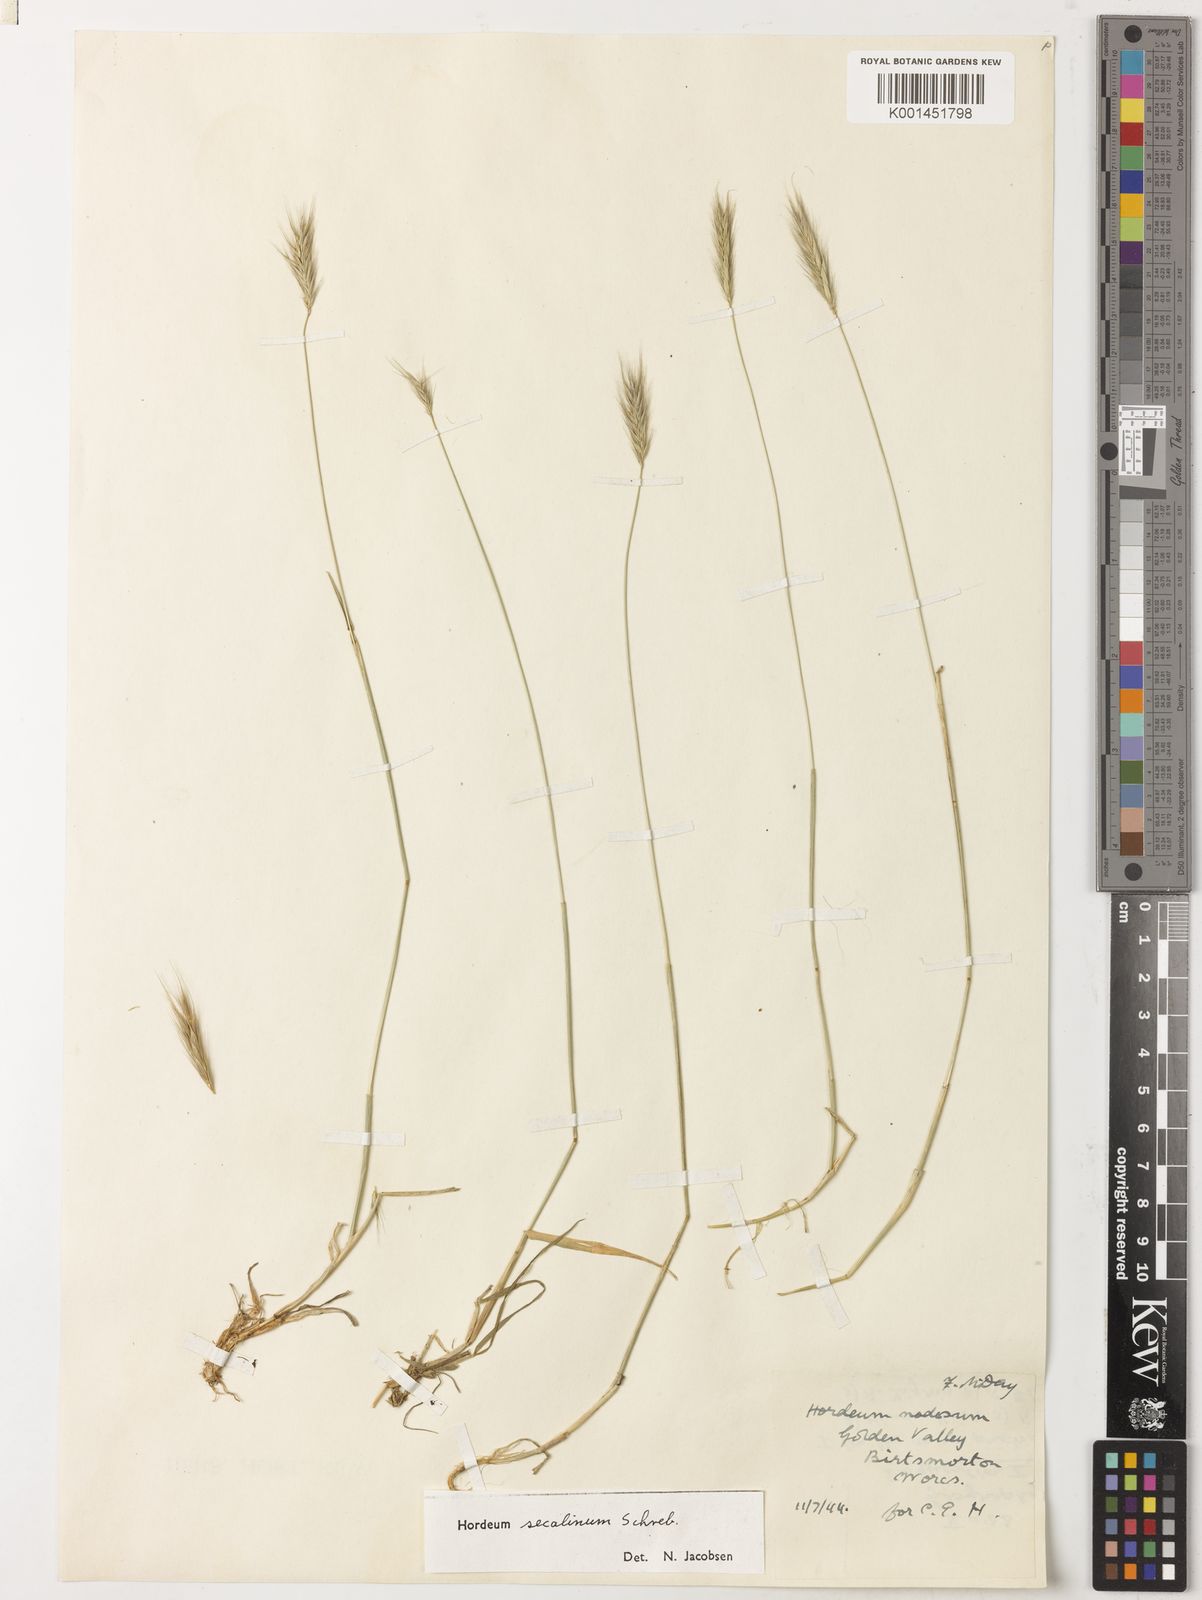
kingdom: Plantae
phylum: Tracheophyta
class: Liliopsida
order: Poales
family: Poaceae
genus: Hordeum
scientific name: Hordeum secalinum
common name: Meadow barley
